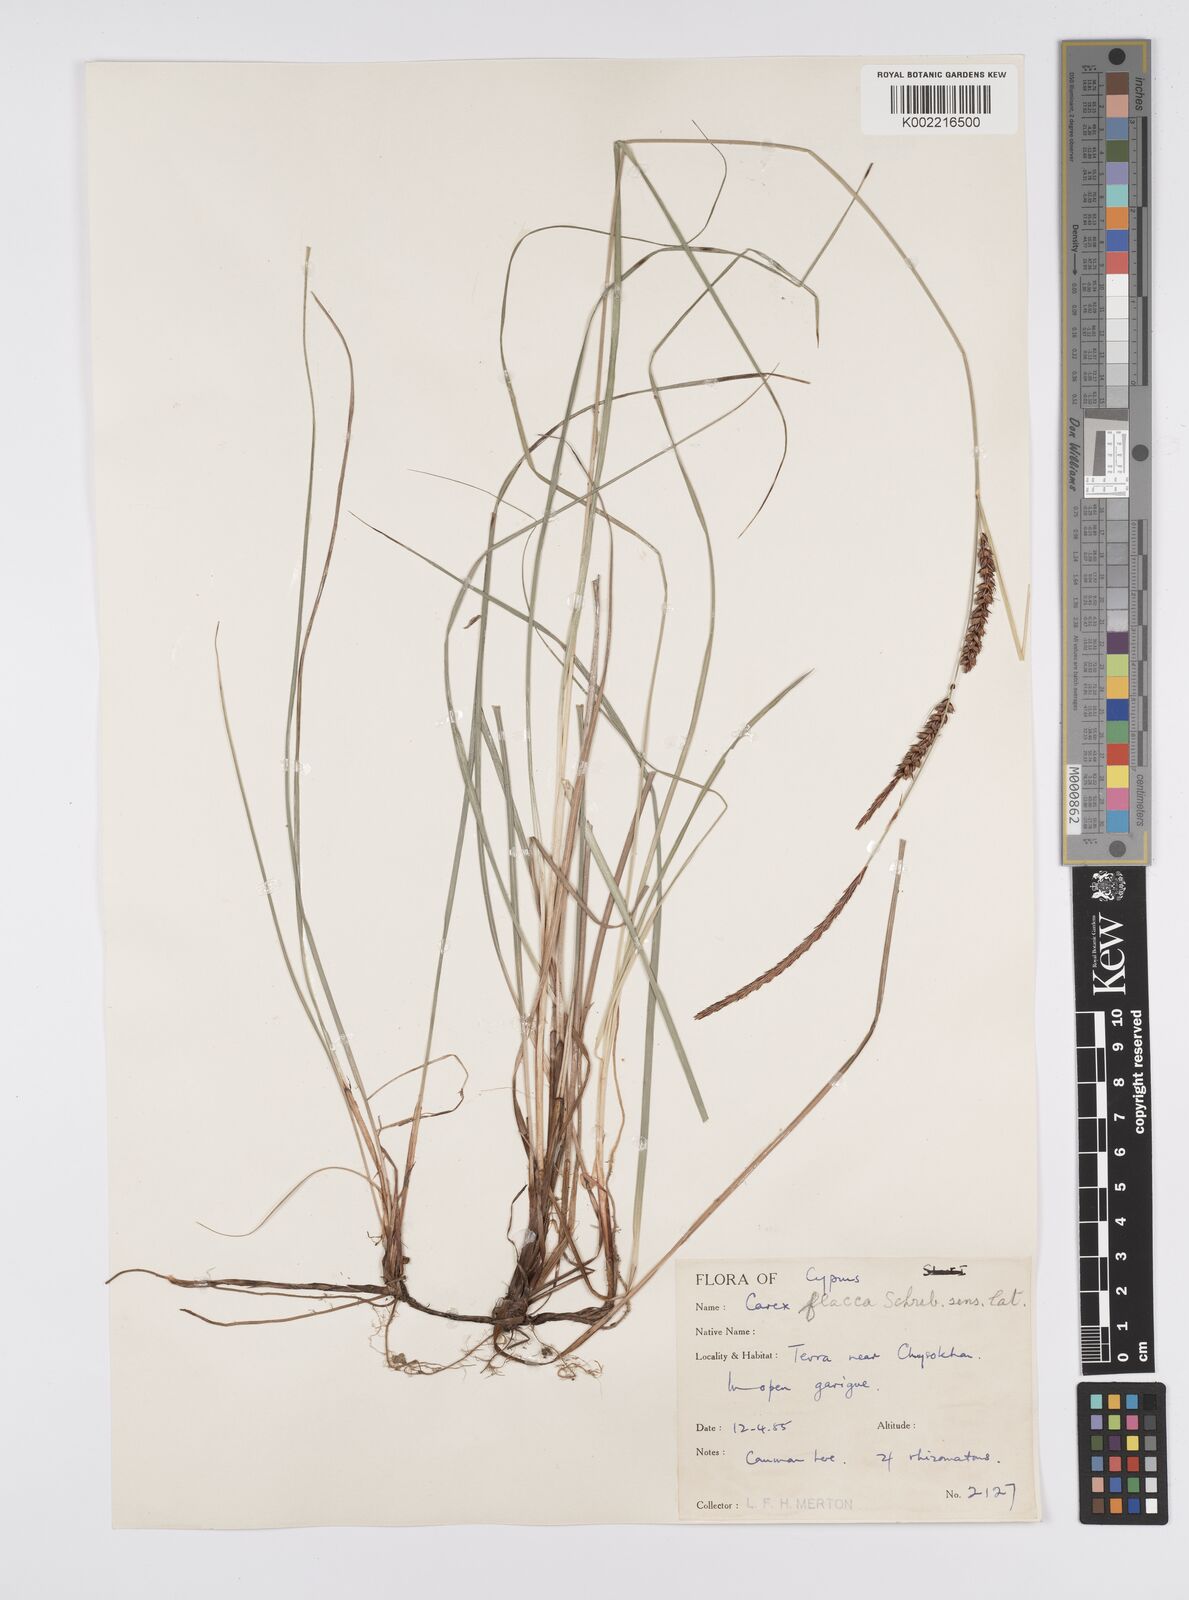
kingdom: Plantae
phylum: Tracheophyta
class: Liliopsida
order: Poales
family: Cyperaceae
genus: Carex
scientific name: Carex flacca
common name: Glaucous sedge
